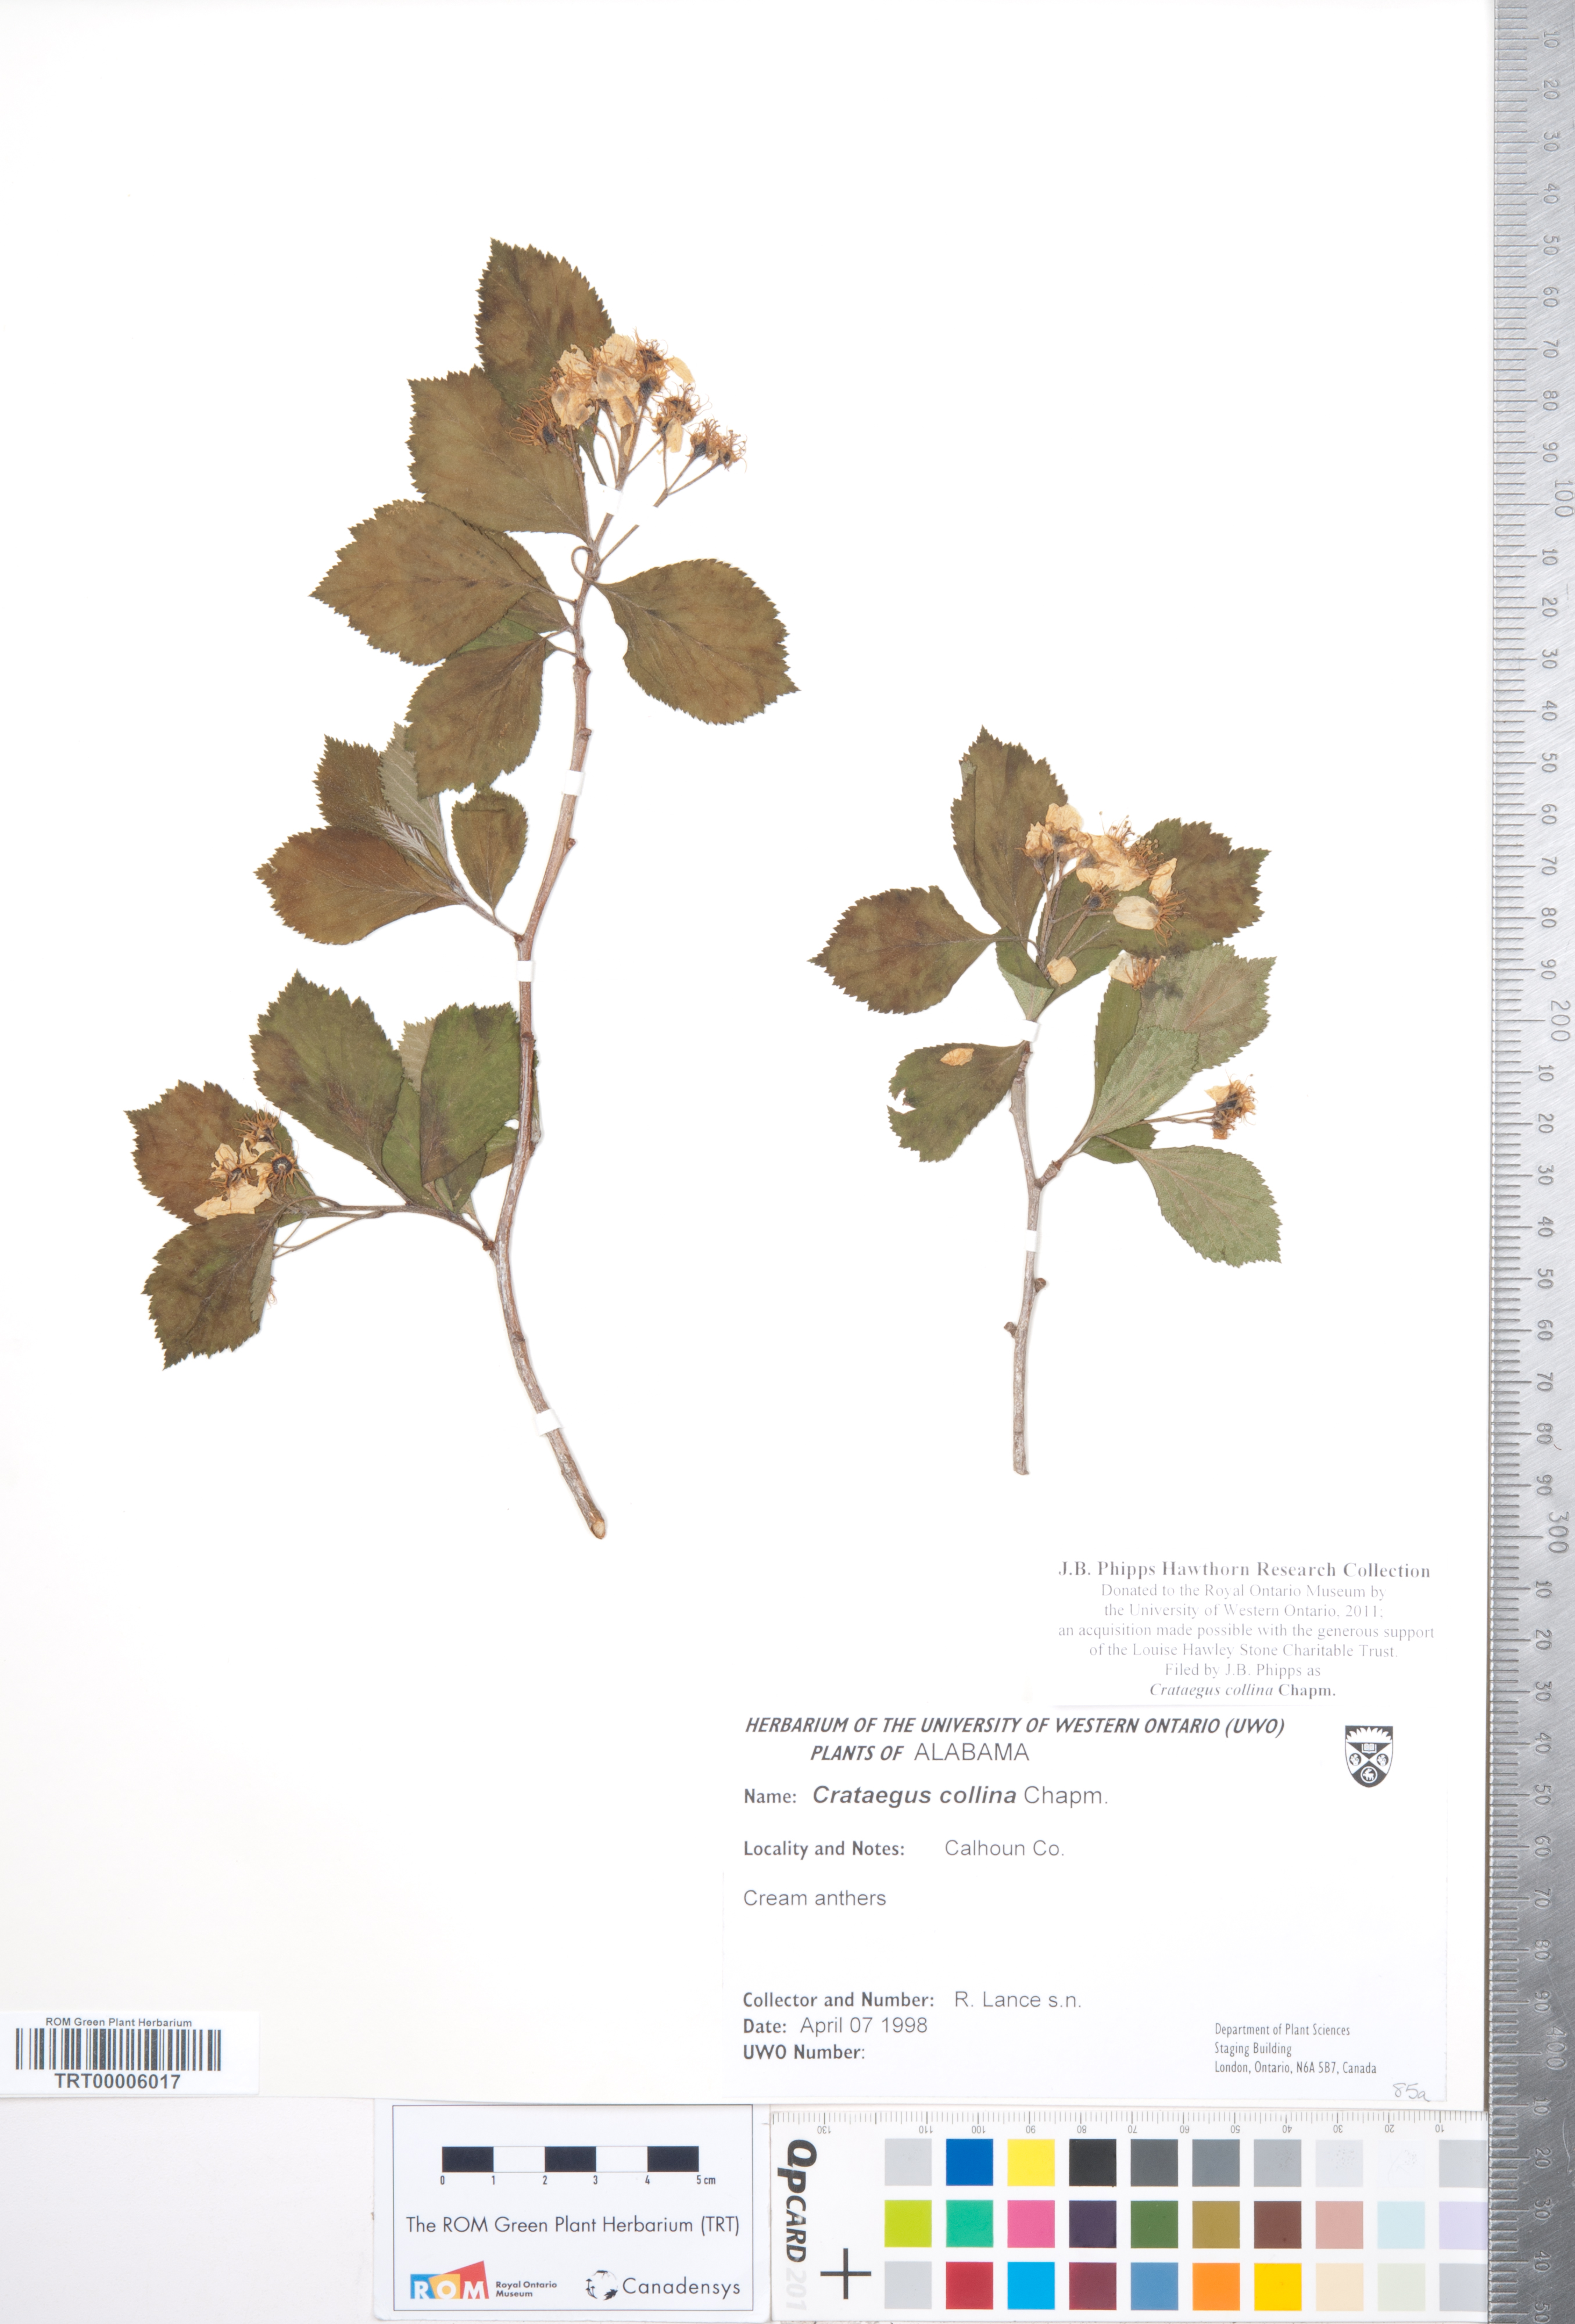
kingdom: Plantae
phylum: Tracheophyta
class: Magnoliopsida
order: Rosales
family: Rosaceae
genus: Crataegus
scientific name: Crataegus collina
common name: Hillside hawthorn
